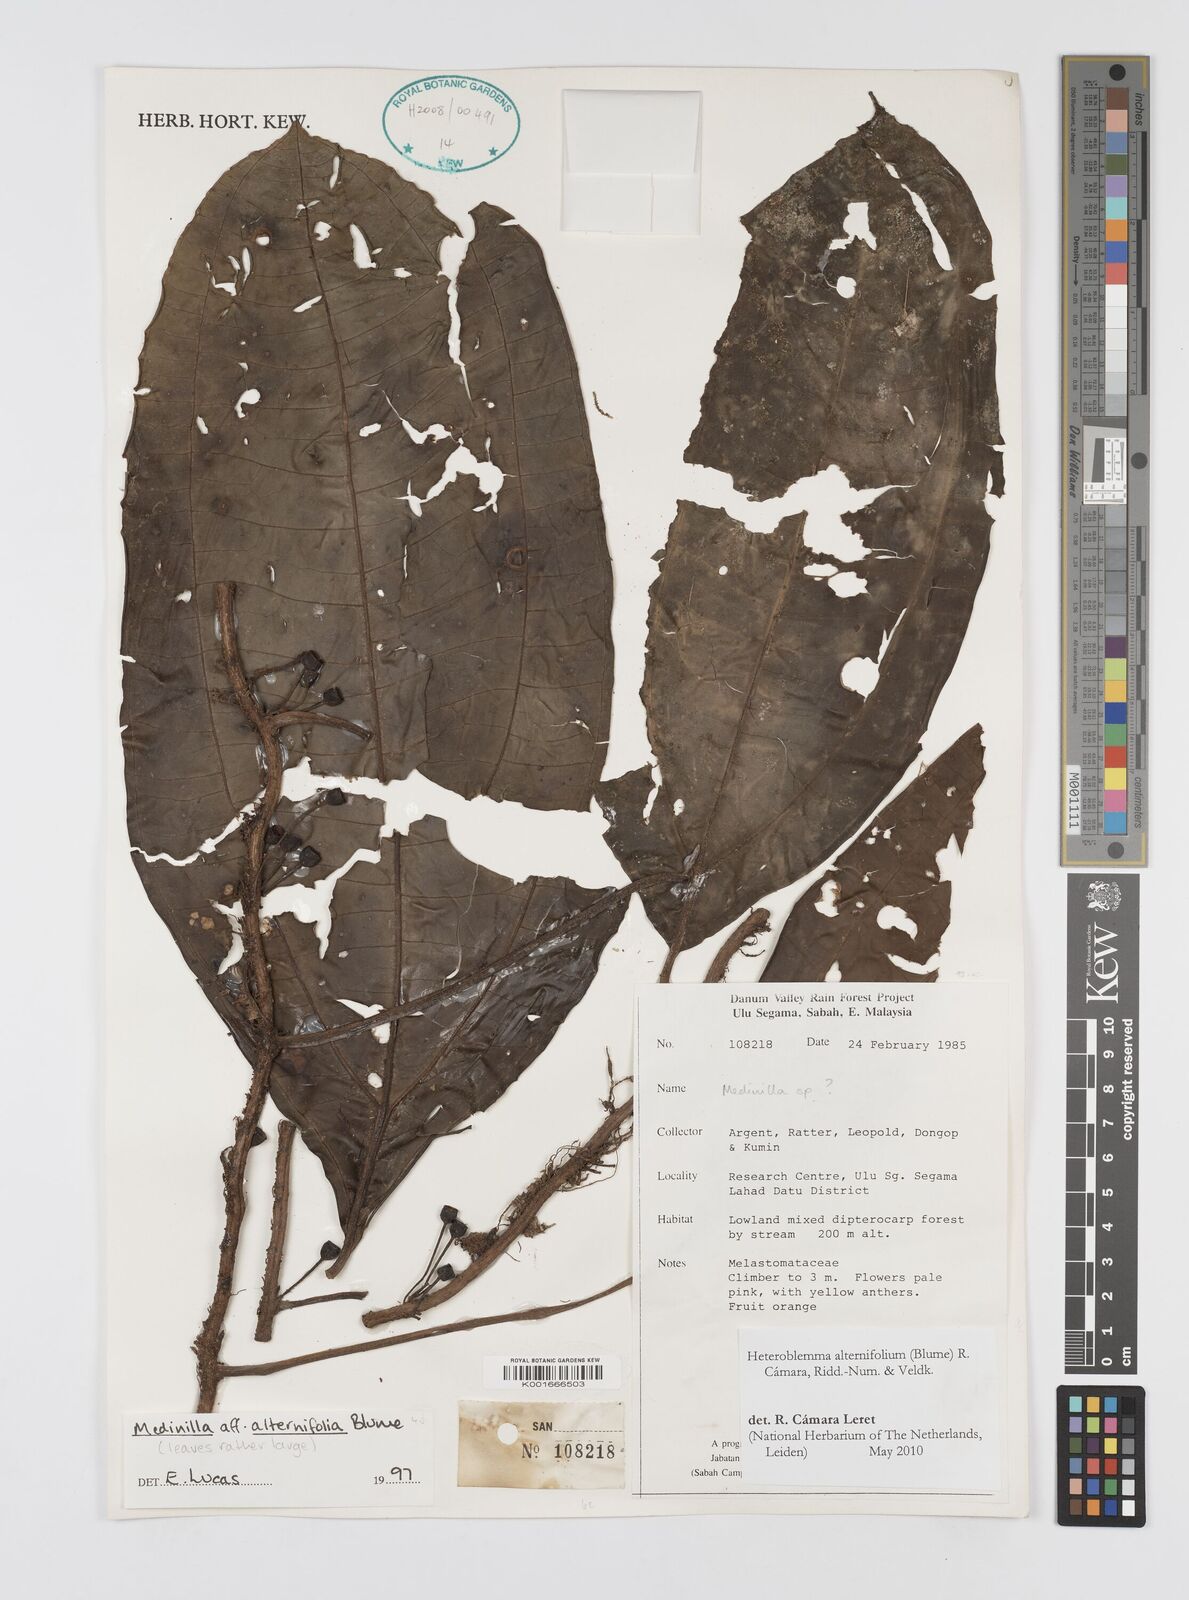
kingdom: Plantae
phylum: Tracheophyta
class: Magnoliopsida
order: Myrtales
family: Melastomataceae
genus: Heteroblemma
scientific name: Heteroblemma alternifolium
